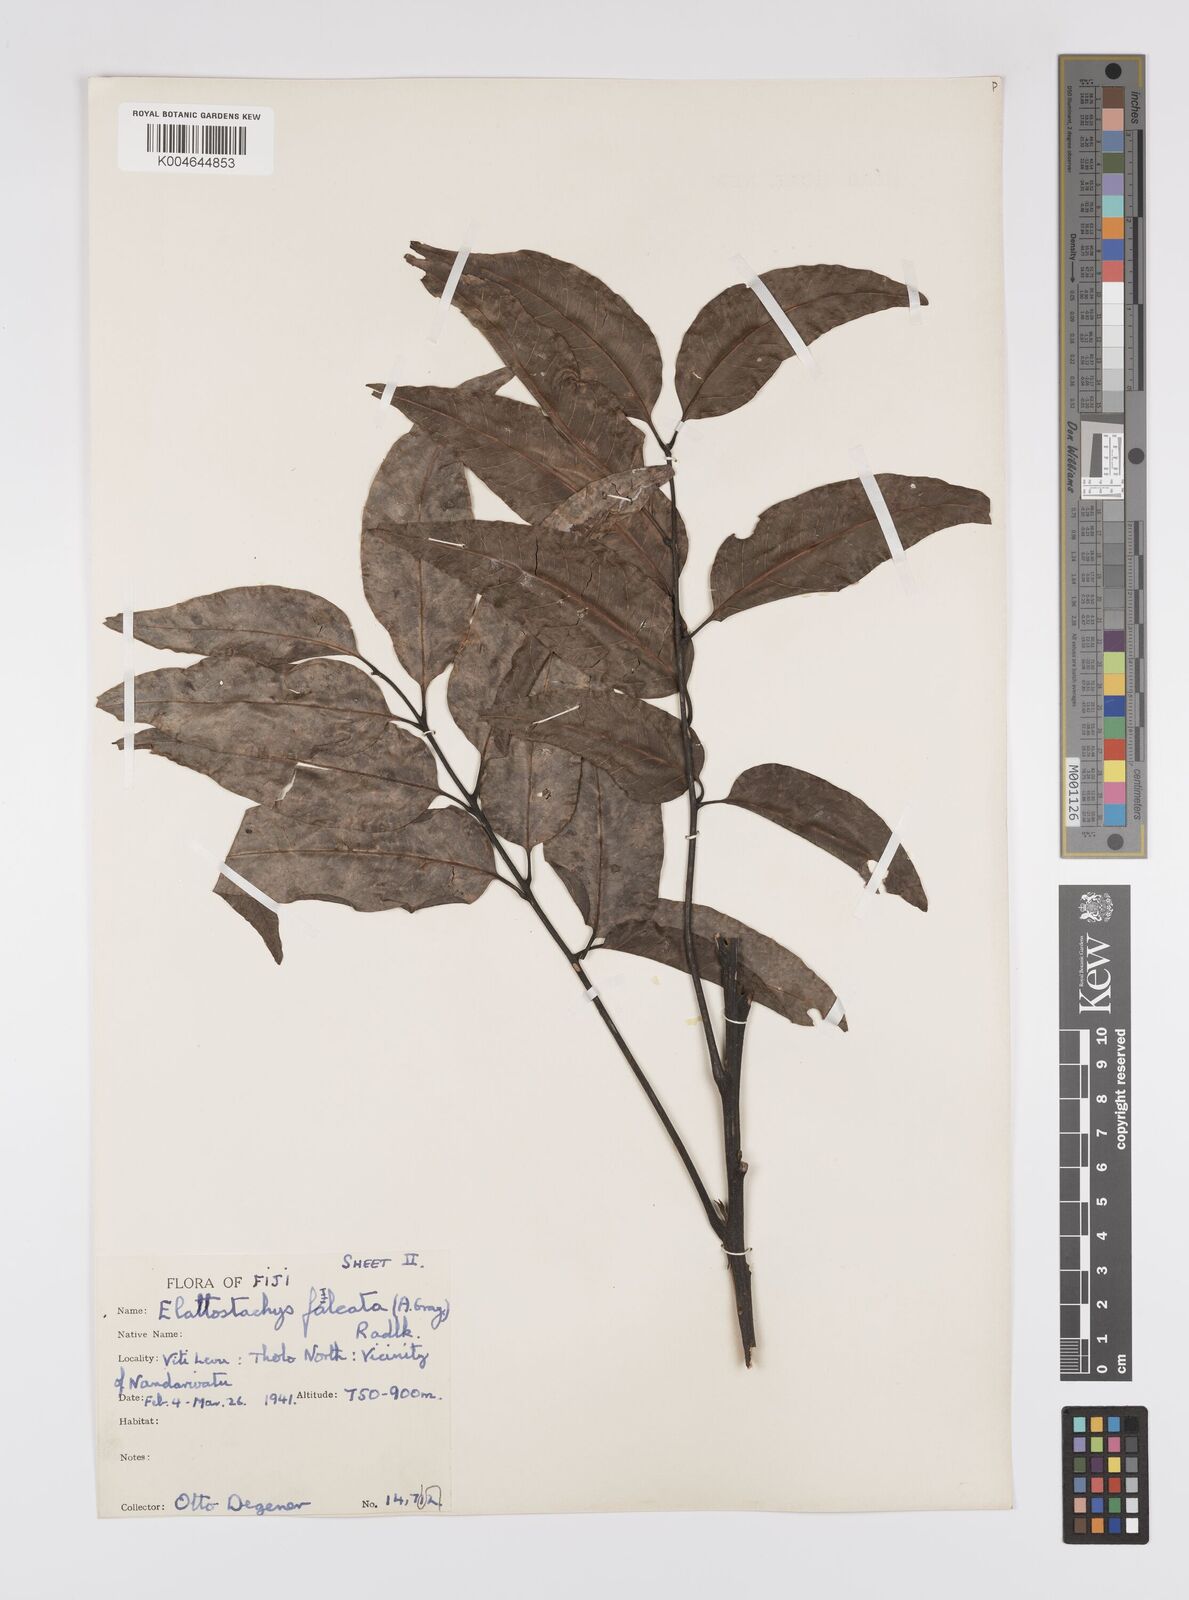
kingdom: Plantae
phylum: Tracheophyta
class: Magnoliopsida
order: Sapindales
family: Sapindaceae
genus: Elattostachys
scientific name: Elattostachys apetala
